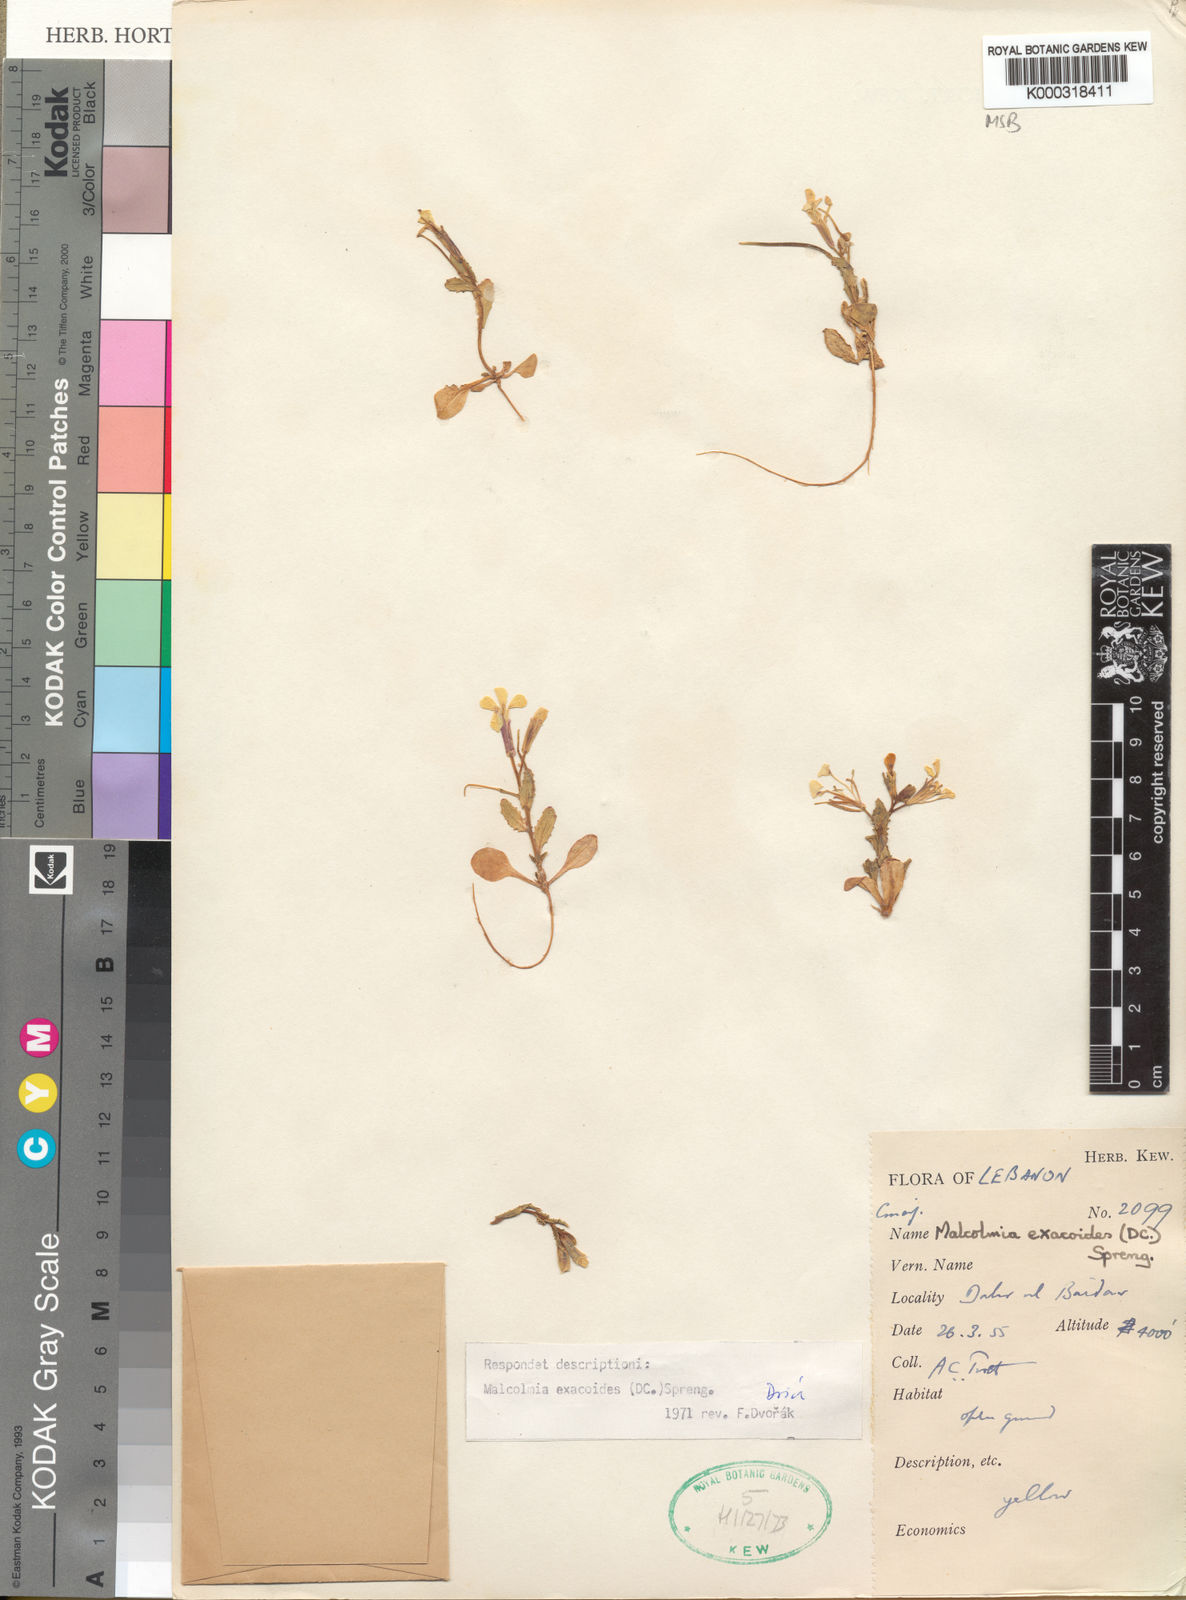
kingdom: Plantae
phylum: Tracheophyta
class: Magnoliopsida
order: Brassicales
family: Brassicaceae
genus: Zuvanda
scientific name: Zuvanda exacoides
